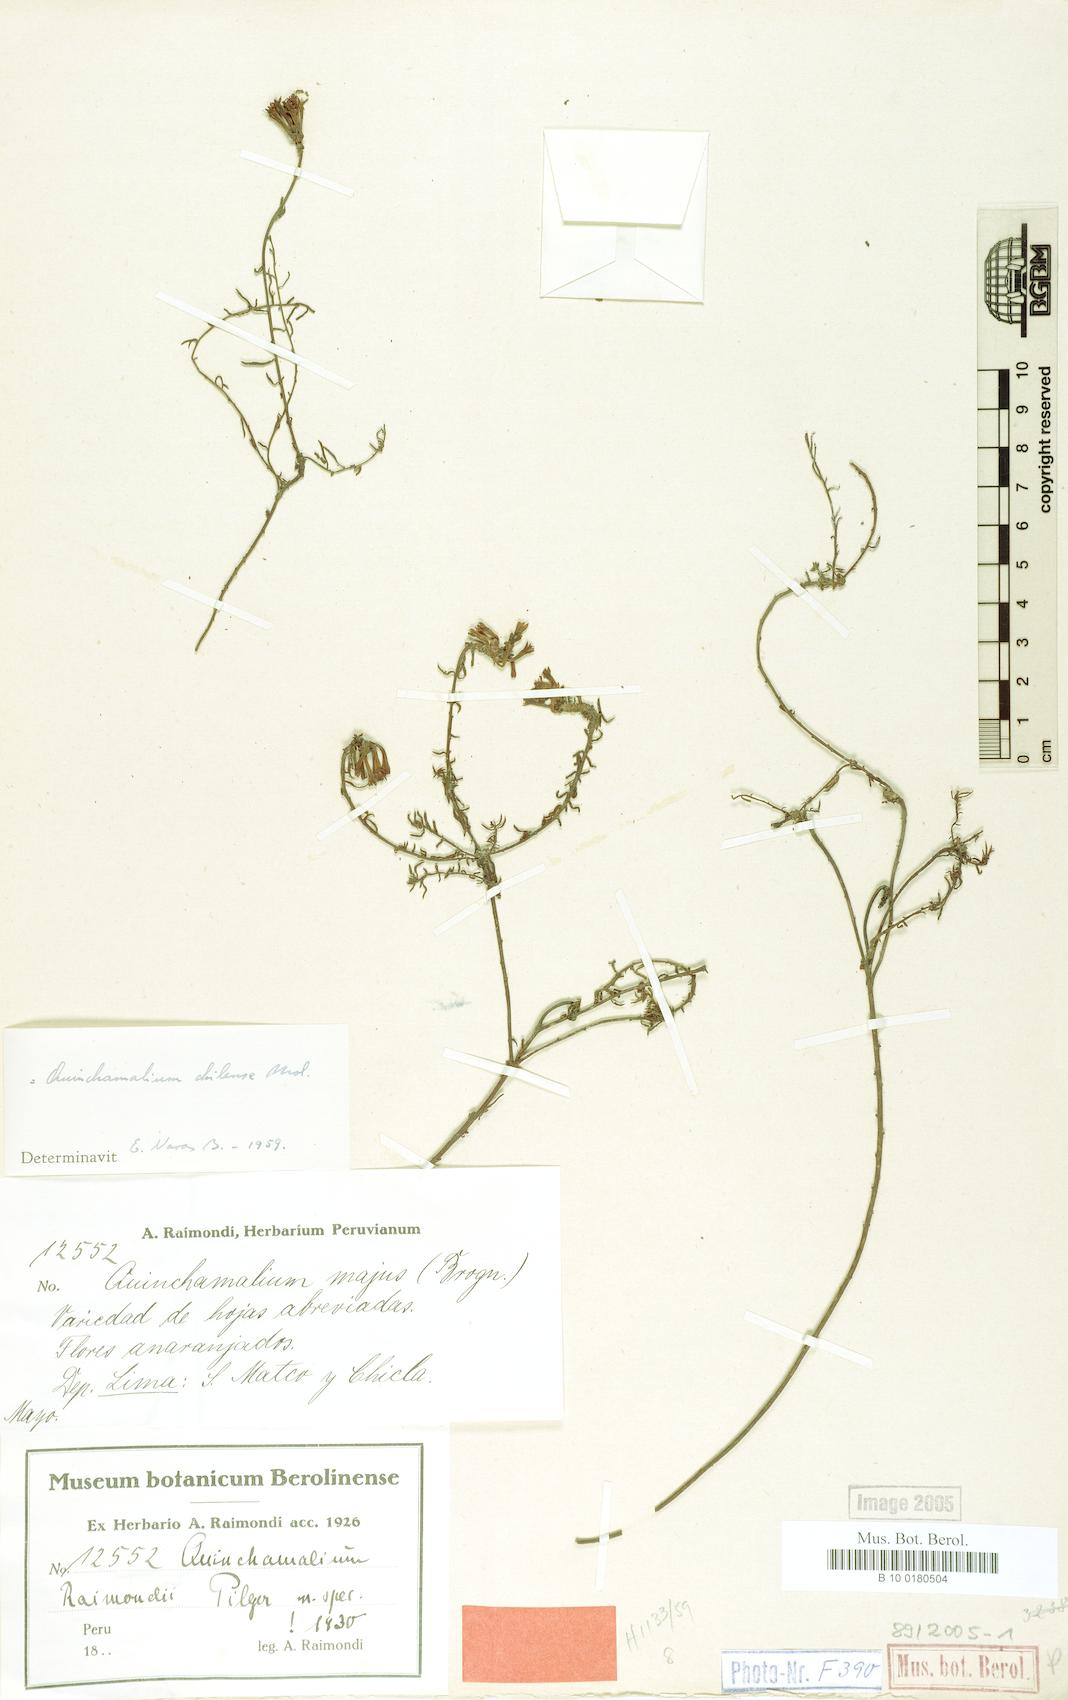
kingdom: Plantae
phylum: Tracheophyta
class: Magnoliopsida
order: Santalales
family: Schoepfiaceae
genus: Quinchamalium
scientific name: Quinchamalium chilense
